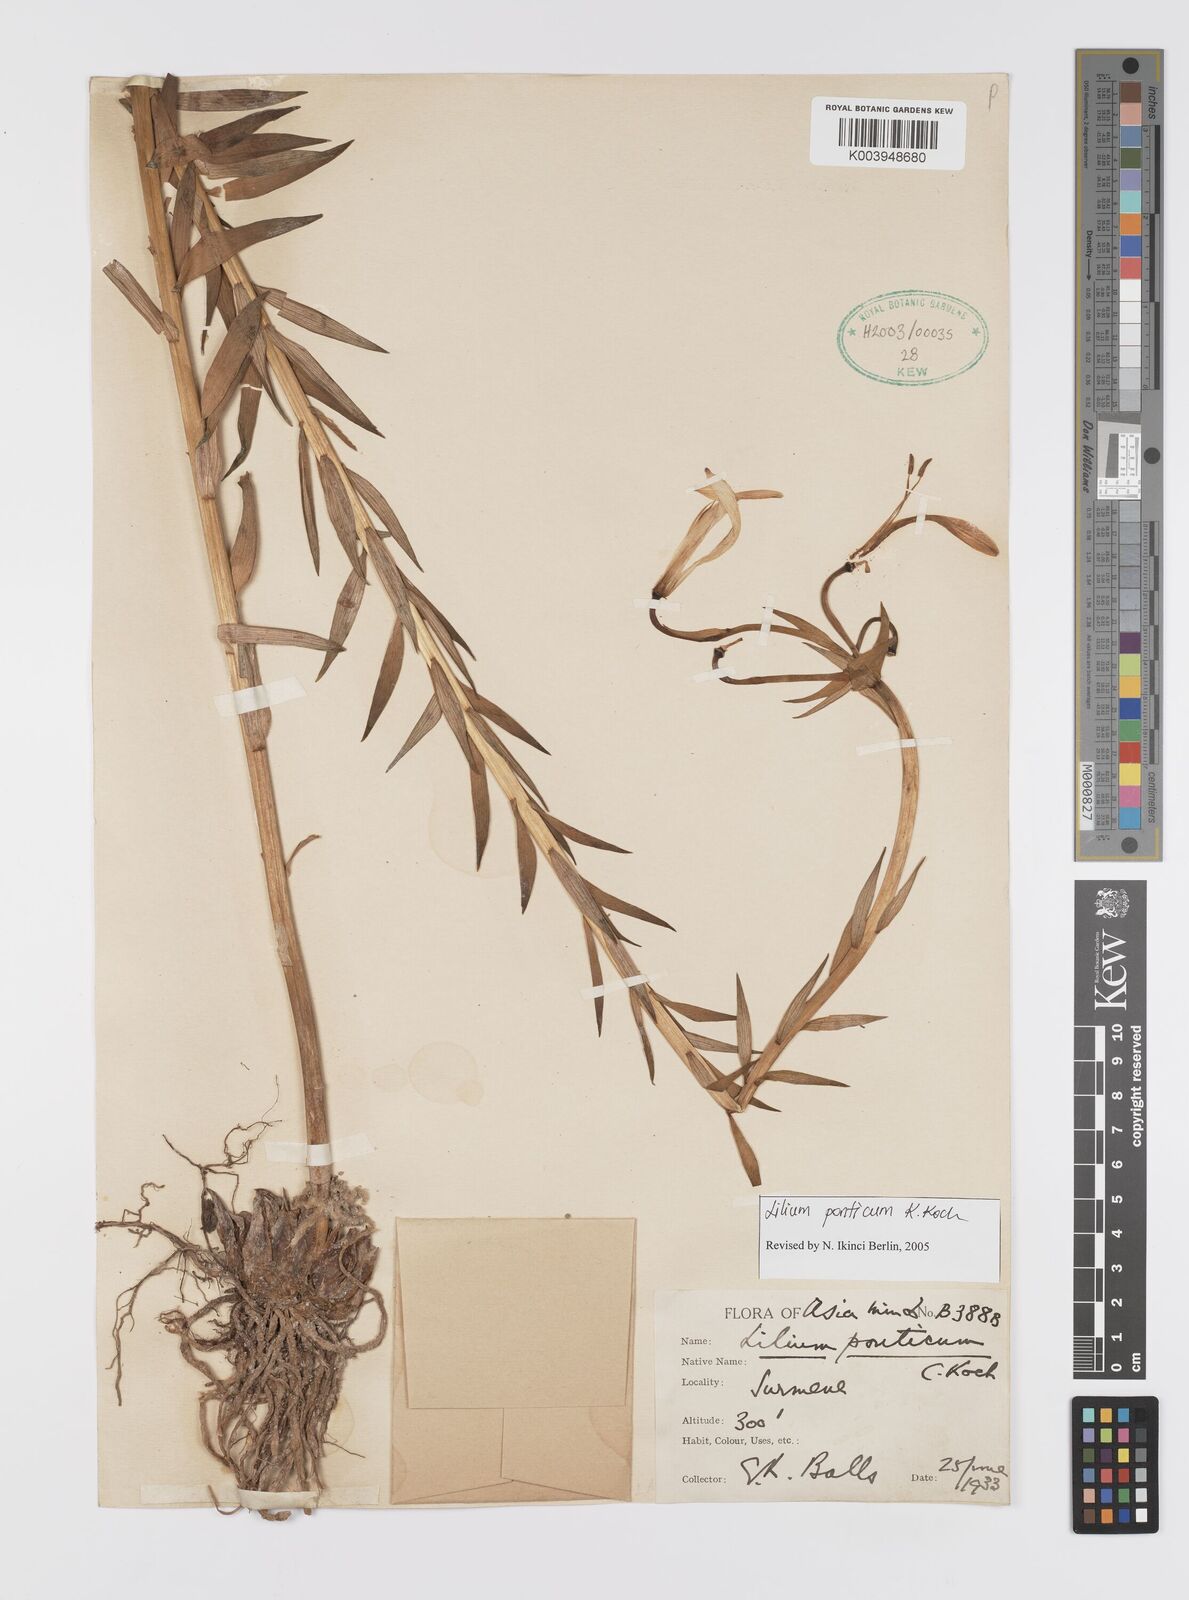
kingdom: Plantae
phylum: Tracheophyta
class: Liliopsida
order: Liliales
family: Liliaceae
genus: Lilium
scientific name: Lilium ponticum
